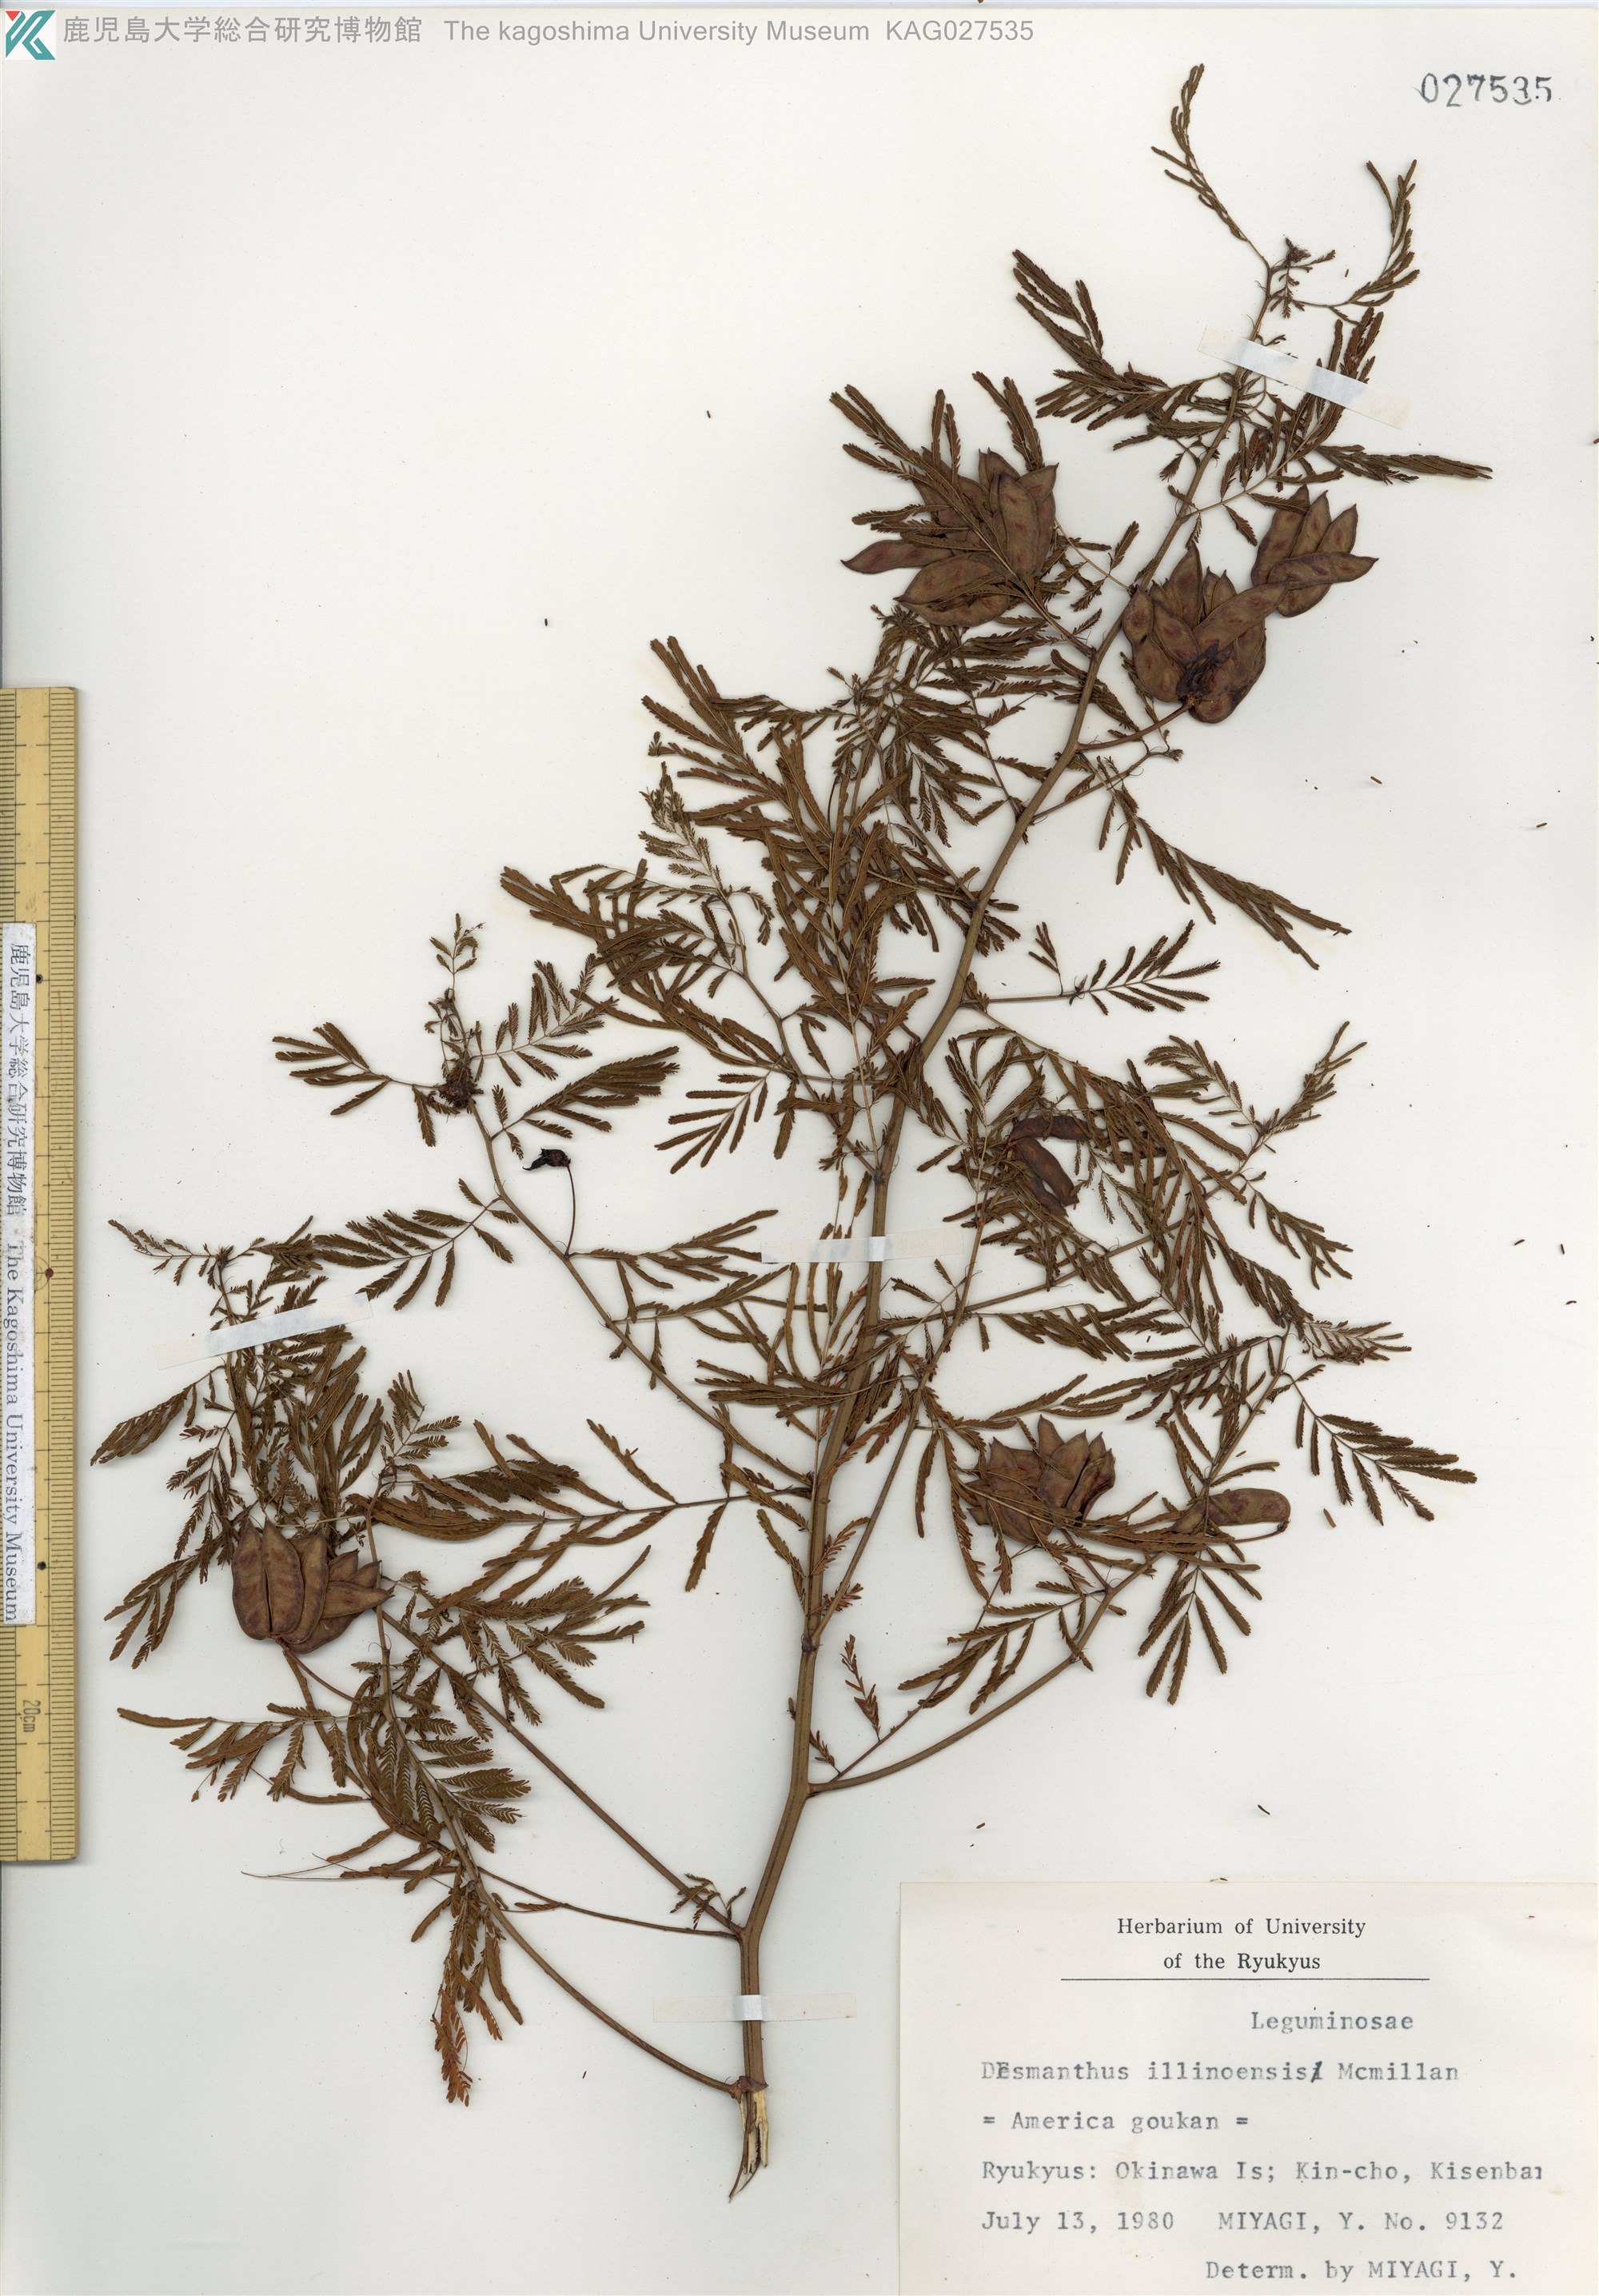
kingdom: Plantae
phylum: Tracheophyta
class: Magnoliopsida
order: Fabales
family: Fabaceae
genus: Desmanthus
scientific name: Desmanthus illinoensis
